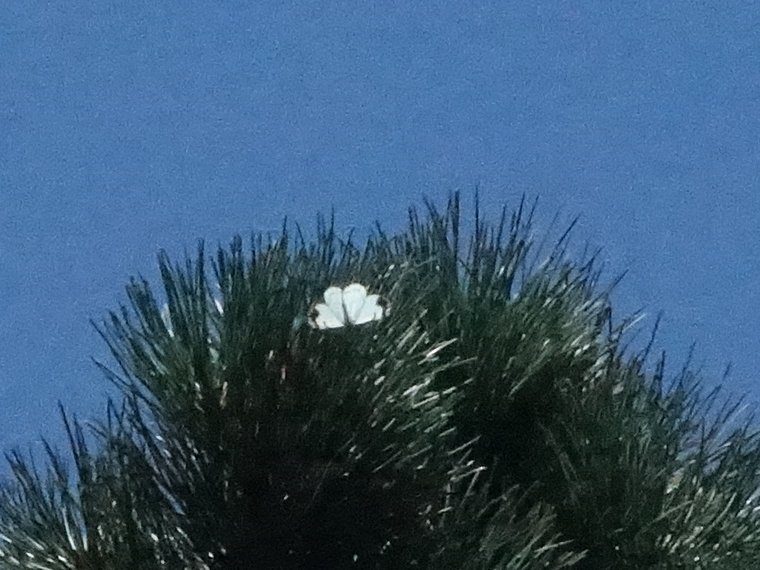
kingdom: Animalia
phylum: Arthropoda
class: Insecta
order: Lepidoptera
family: Pieridae
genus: Neophasia
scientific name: Neophasia menapia
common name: Pine White
